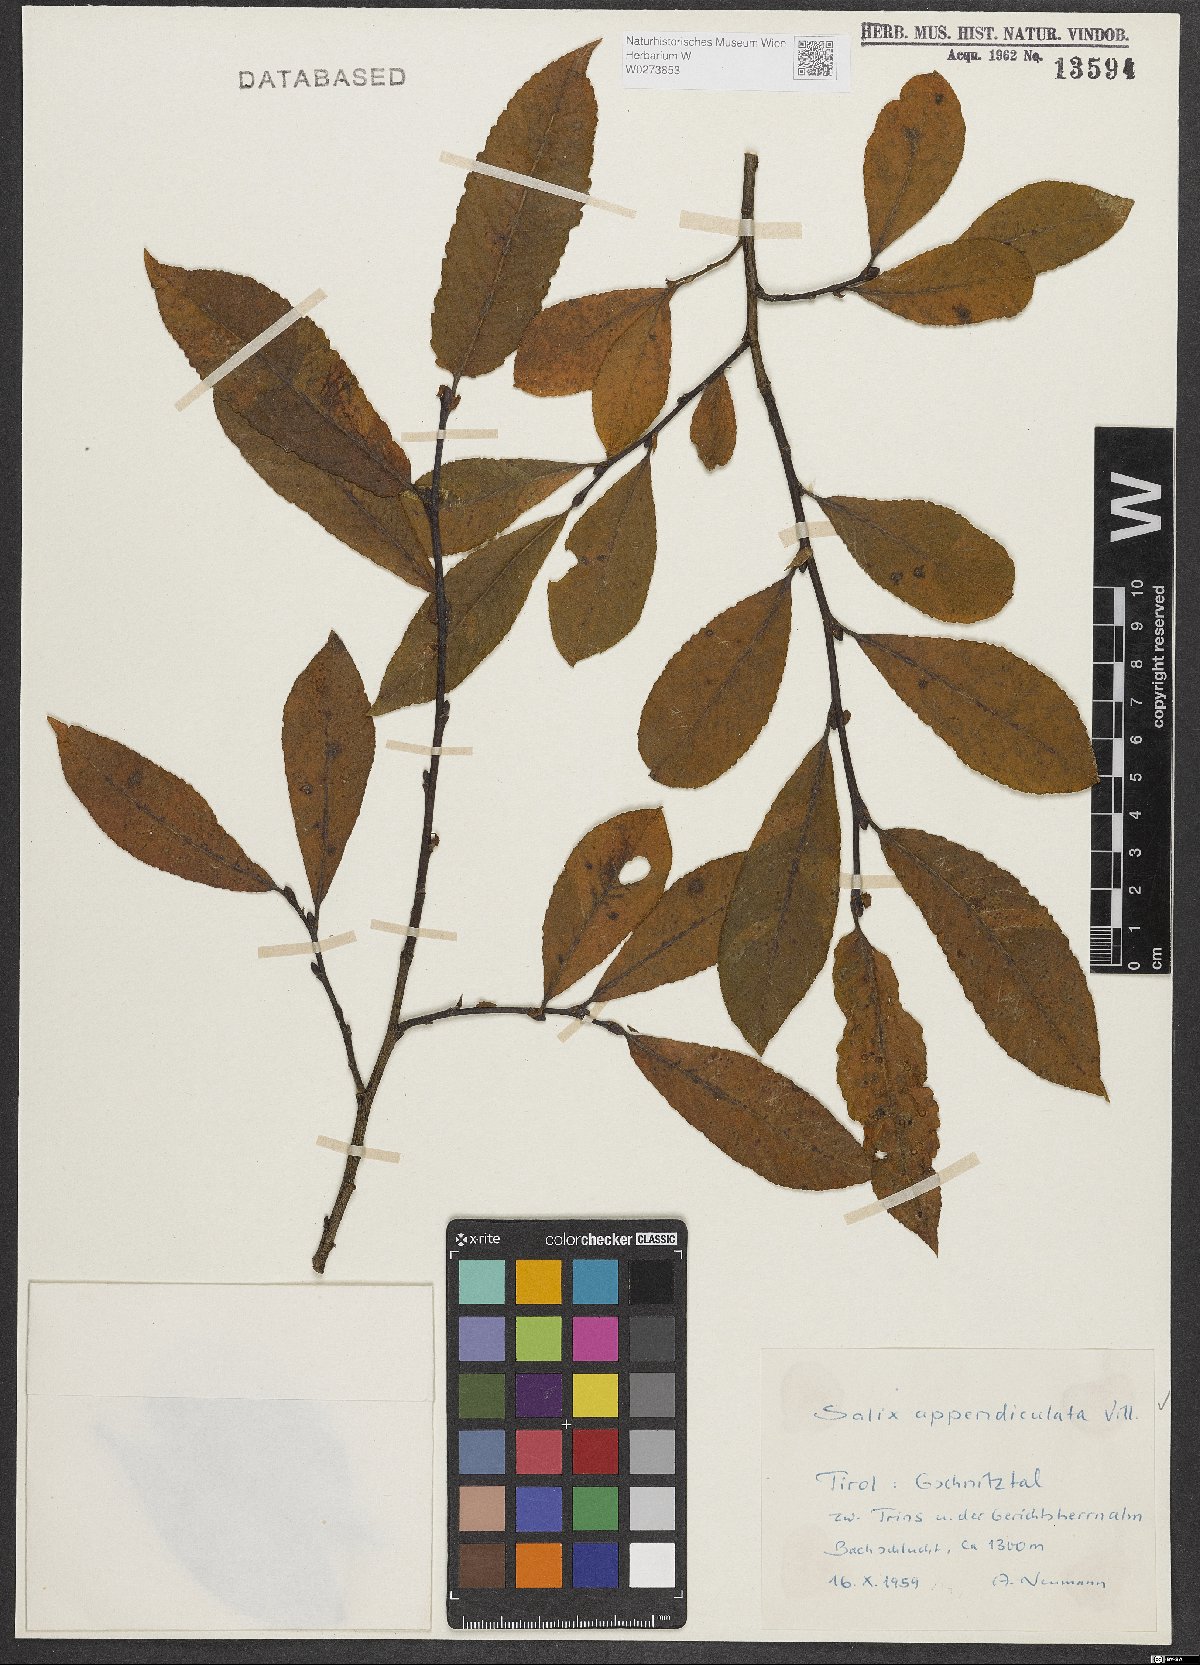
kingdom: Plantae
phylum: Tracheophyta
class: Magnoliopsida
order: Malpighiales
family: Salicaceae
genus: Salix
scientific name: Salix appendiculata
